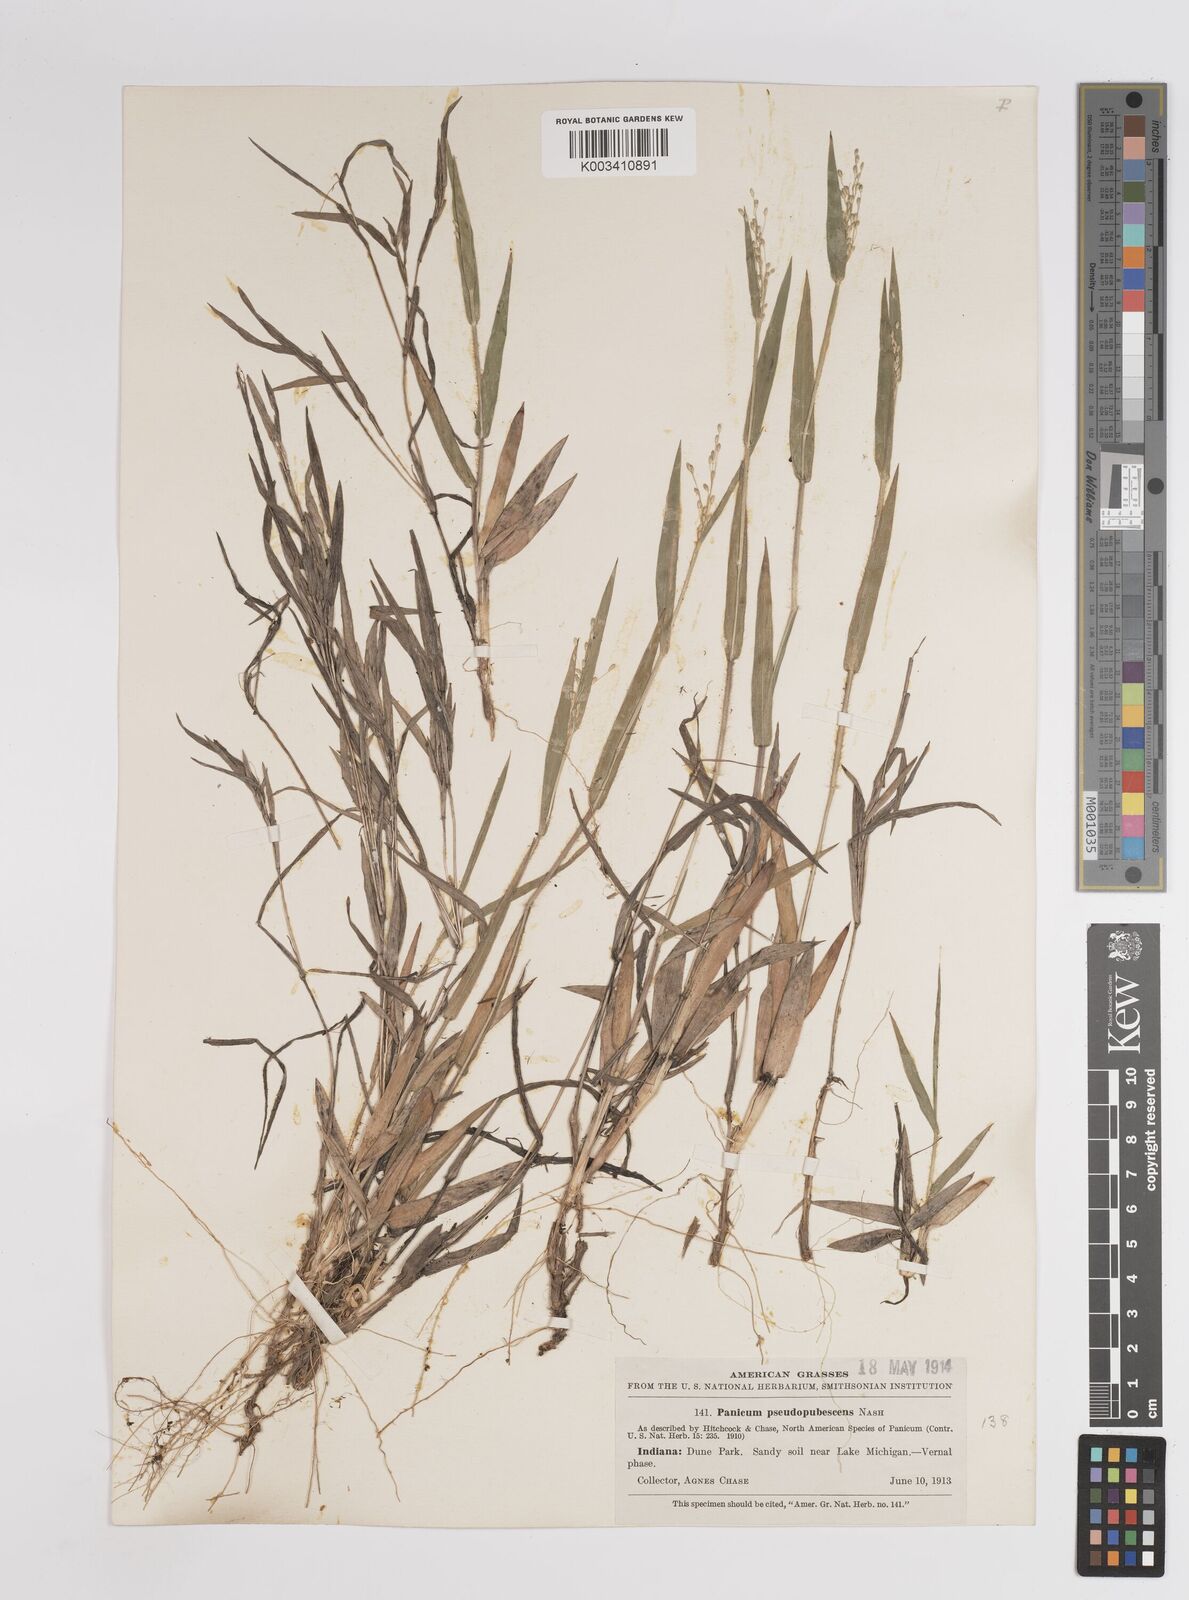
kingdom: Plantae
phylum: Tracheophyta
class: Liliopsida
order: Poales
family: Poaceae
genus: Dichanthelium
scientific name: Dichanthelium villosissimum
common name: White-haired panicgrass
